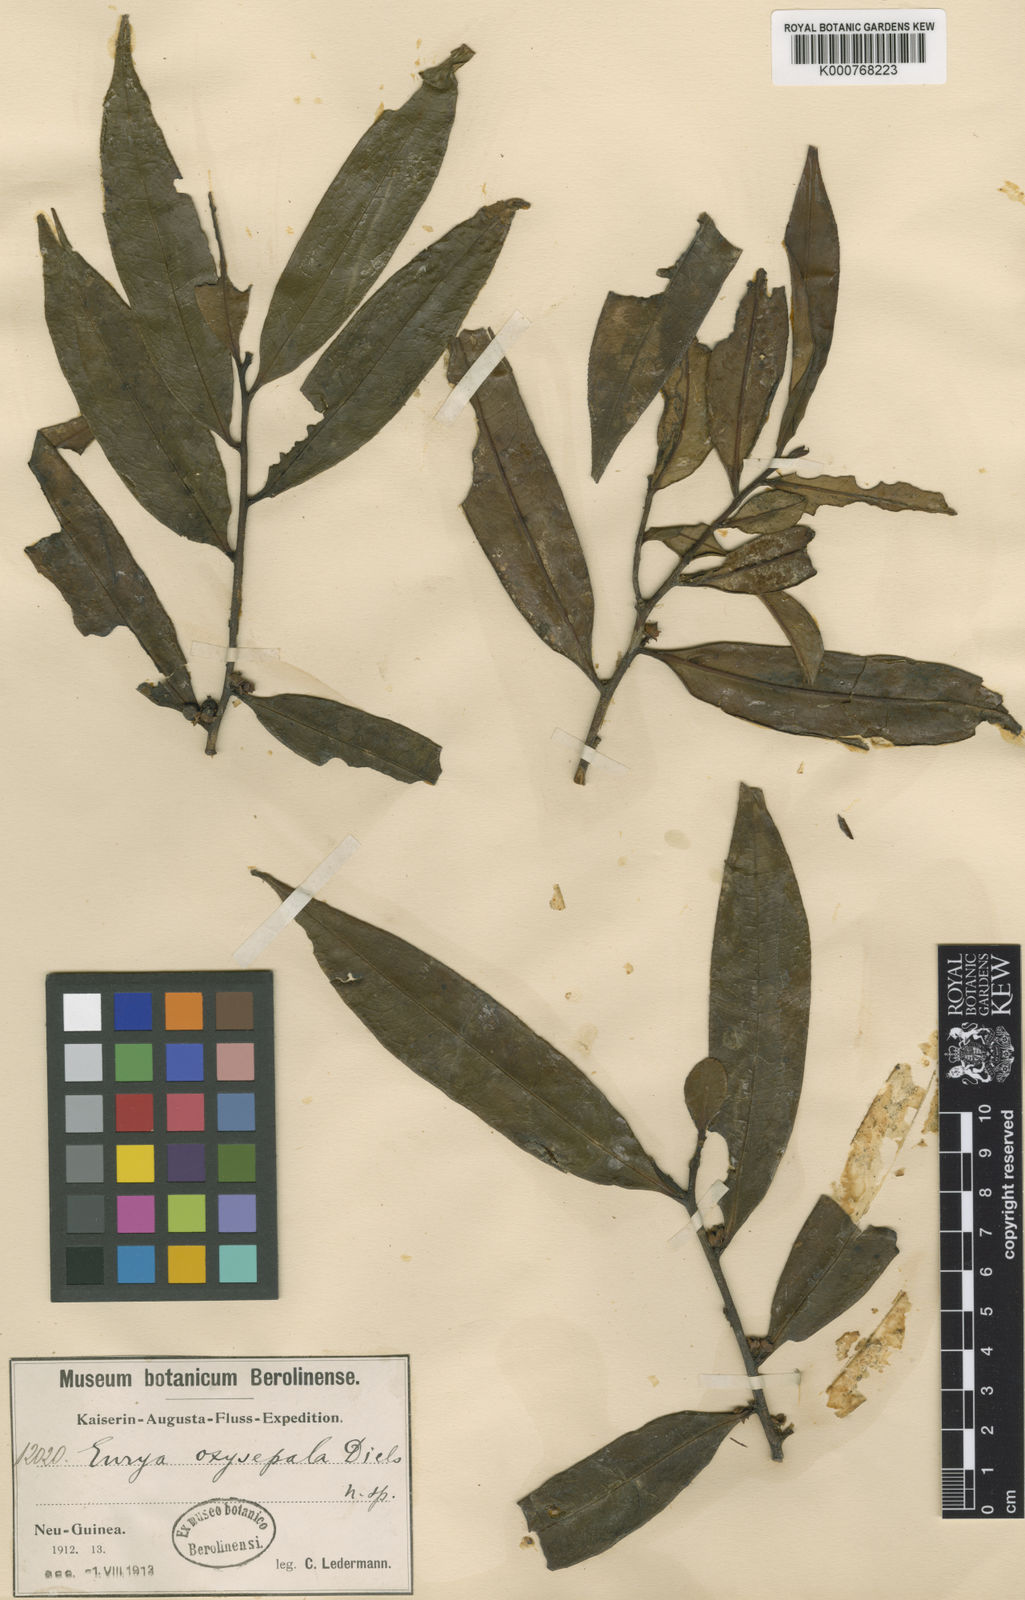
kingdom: Plantae
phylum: Tracheophyta
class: Magnoliopsida
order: Ericales
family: Pentaphylacaceae
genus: Eurya
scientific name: Eurya oxysepala
